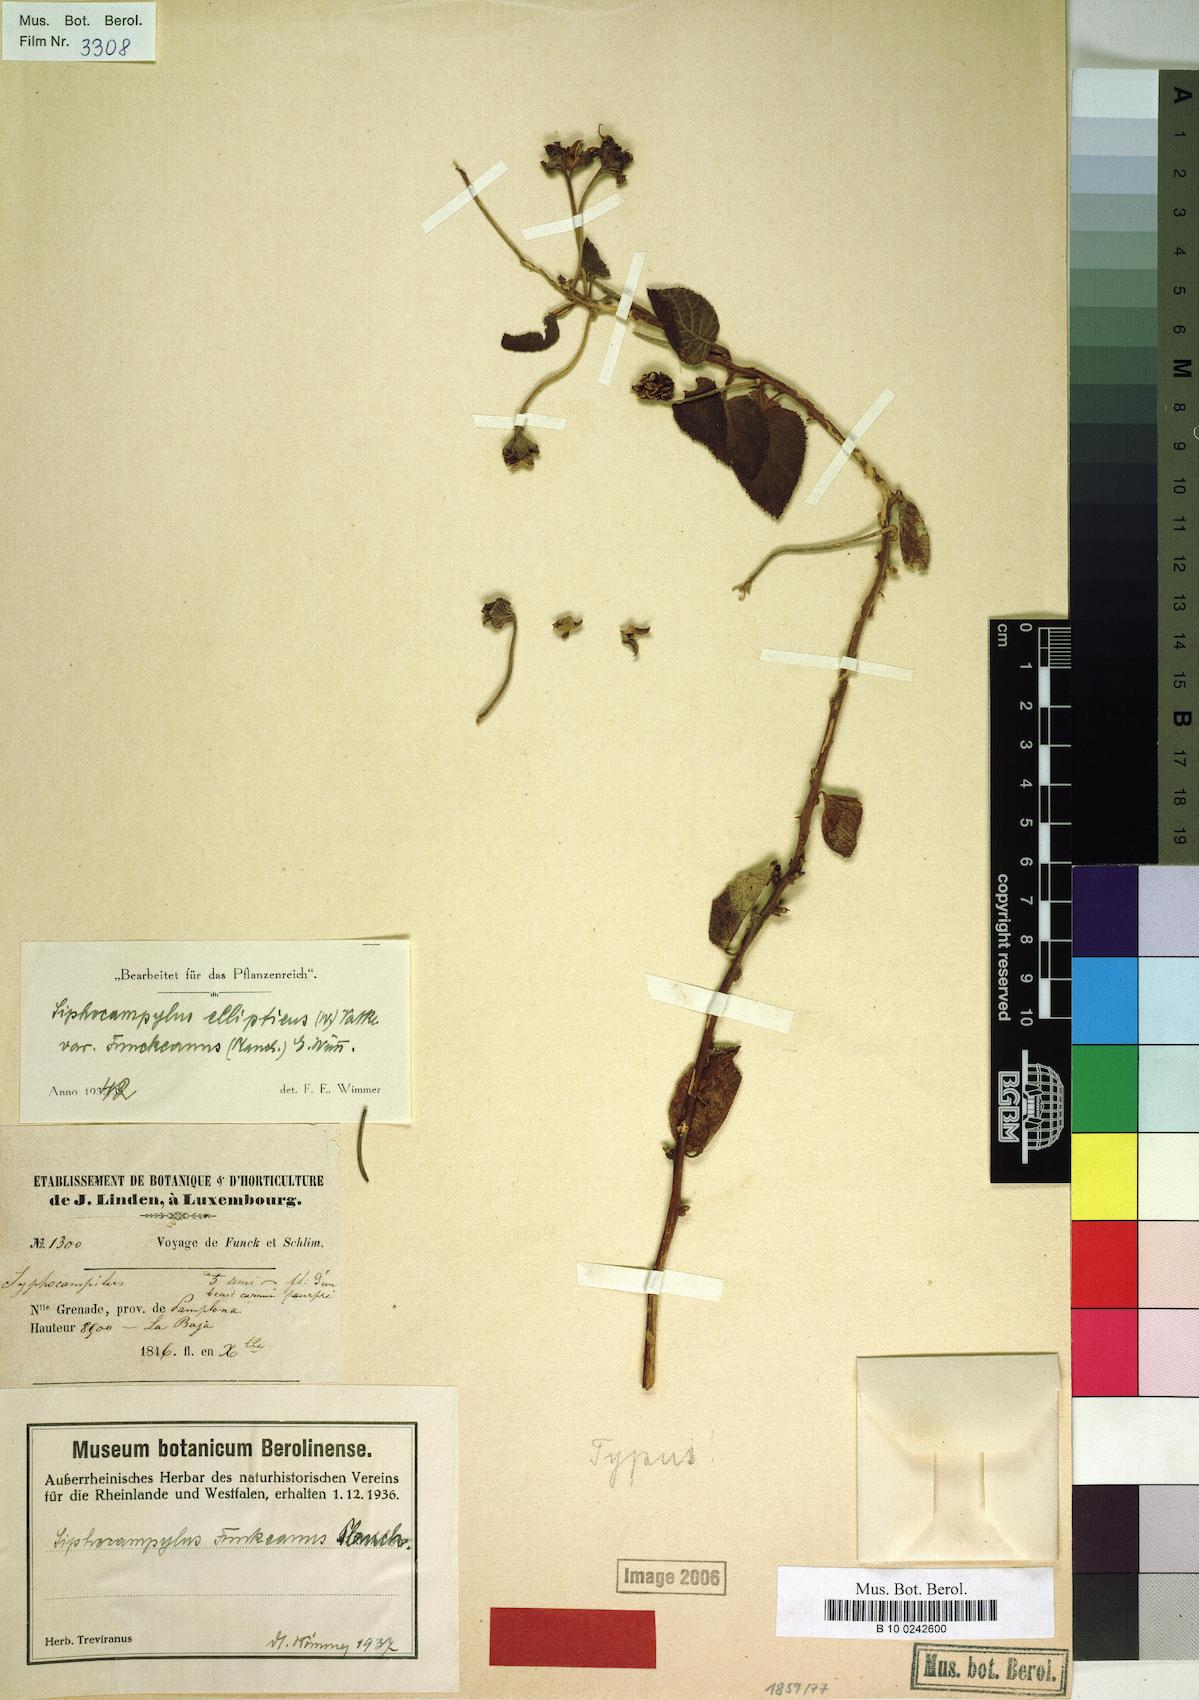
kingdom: Plantae
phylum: Tracheophyta
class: Magnoliopsida
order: Asterales
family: Campanulaceae
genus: Siphocampylus
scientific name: Siphocampylus ellipticus
